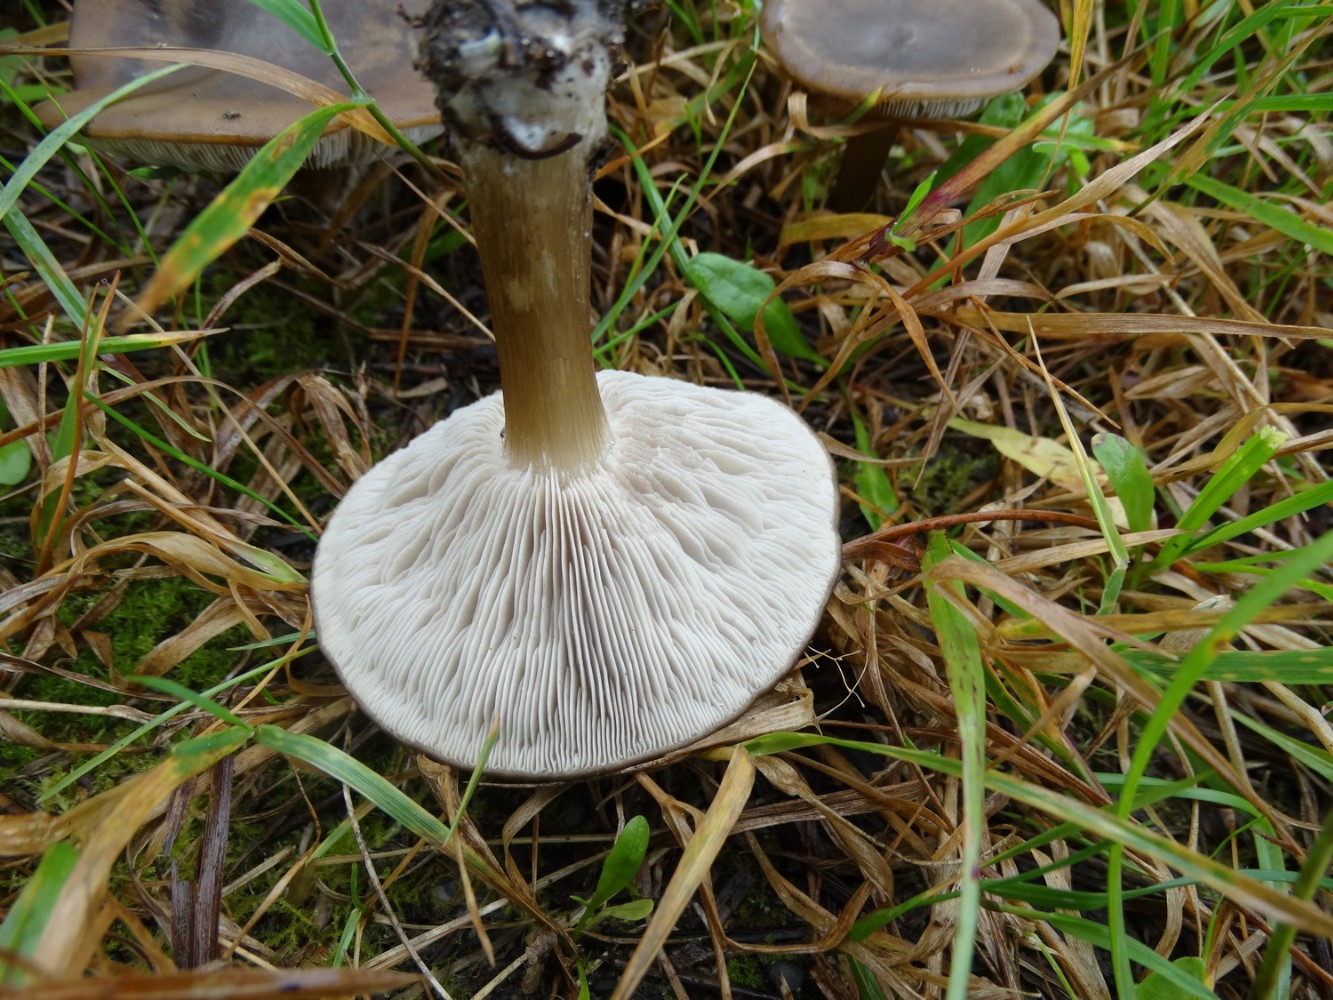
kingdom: Fungi
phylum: Basidiomycota
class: Agaricomycetes
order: Agaricales
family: Tricholomataceae
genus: Melanoleuca
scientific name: Melanoleuca
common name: munkehat
